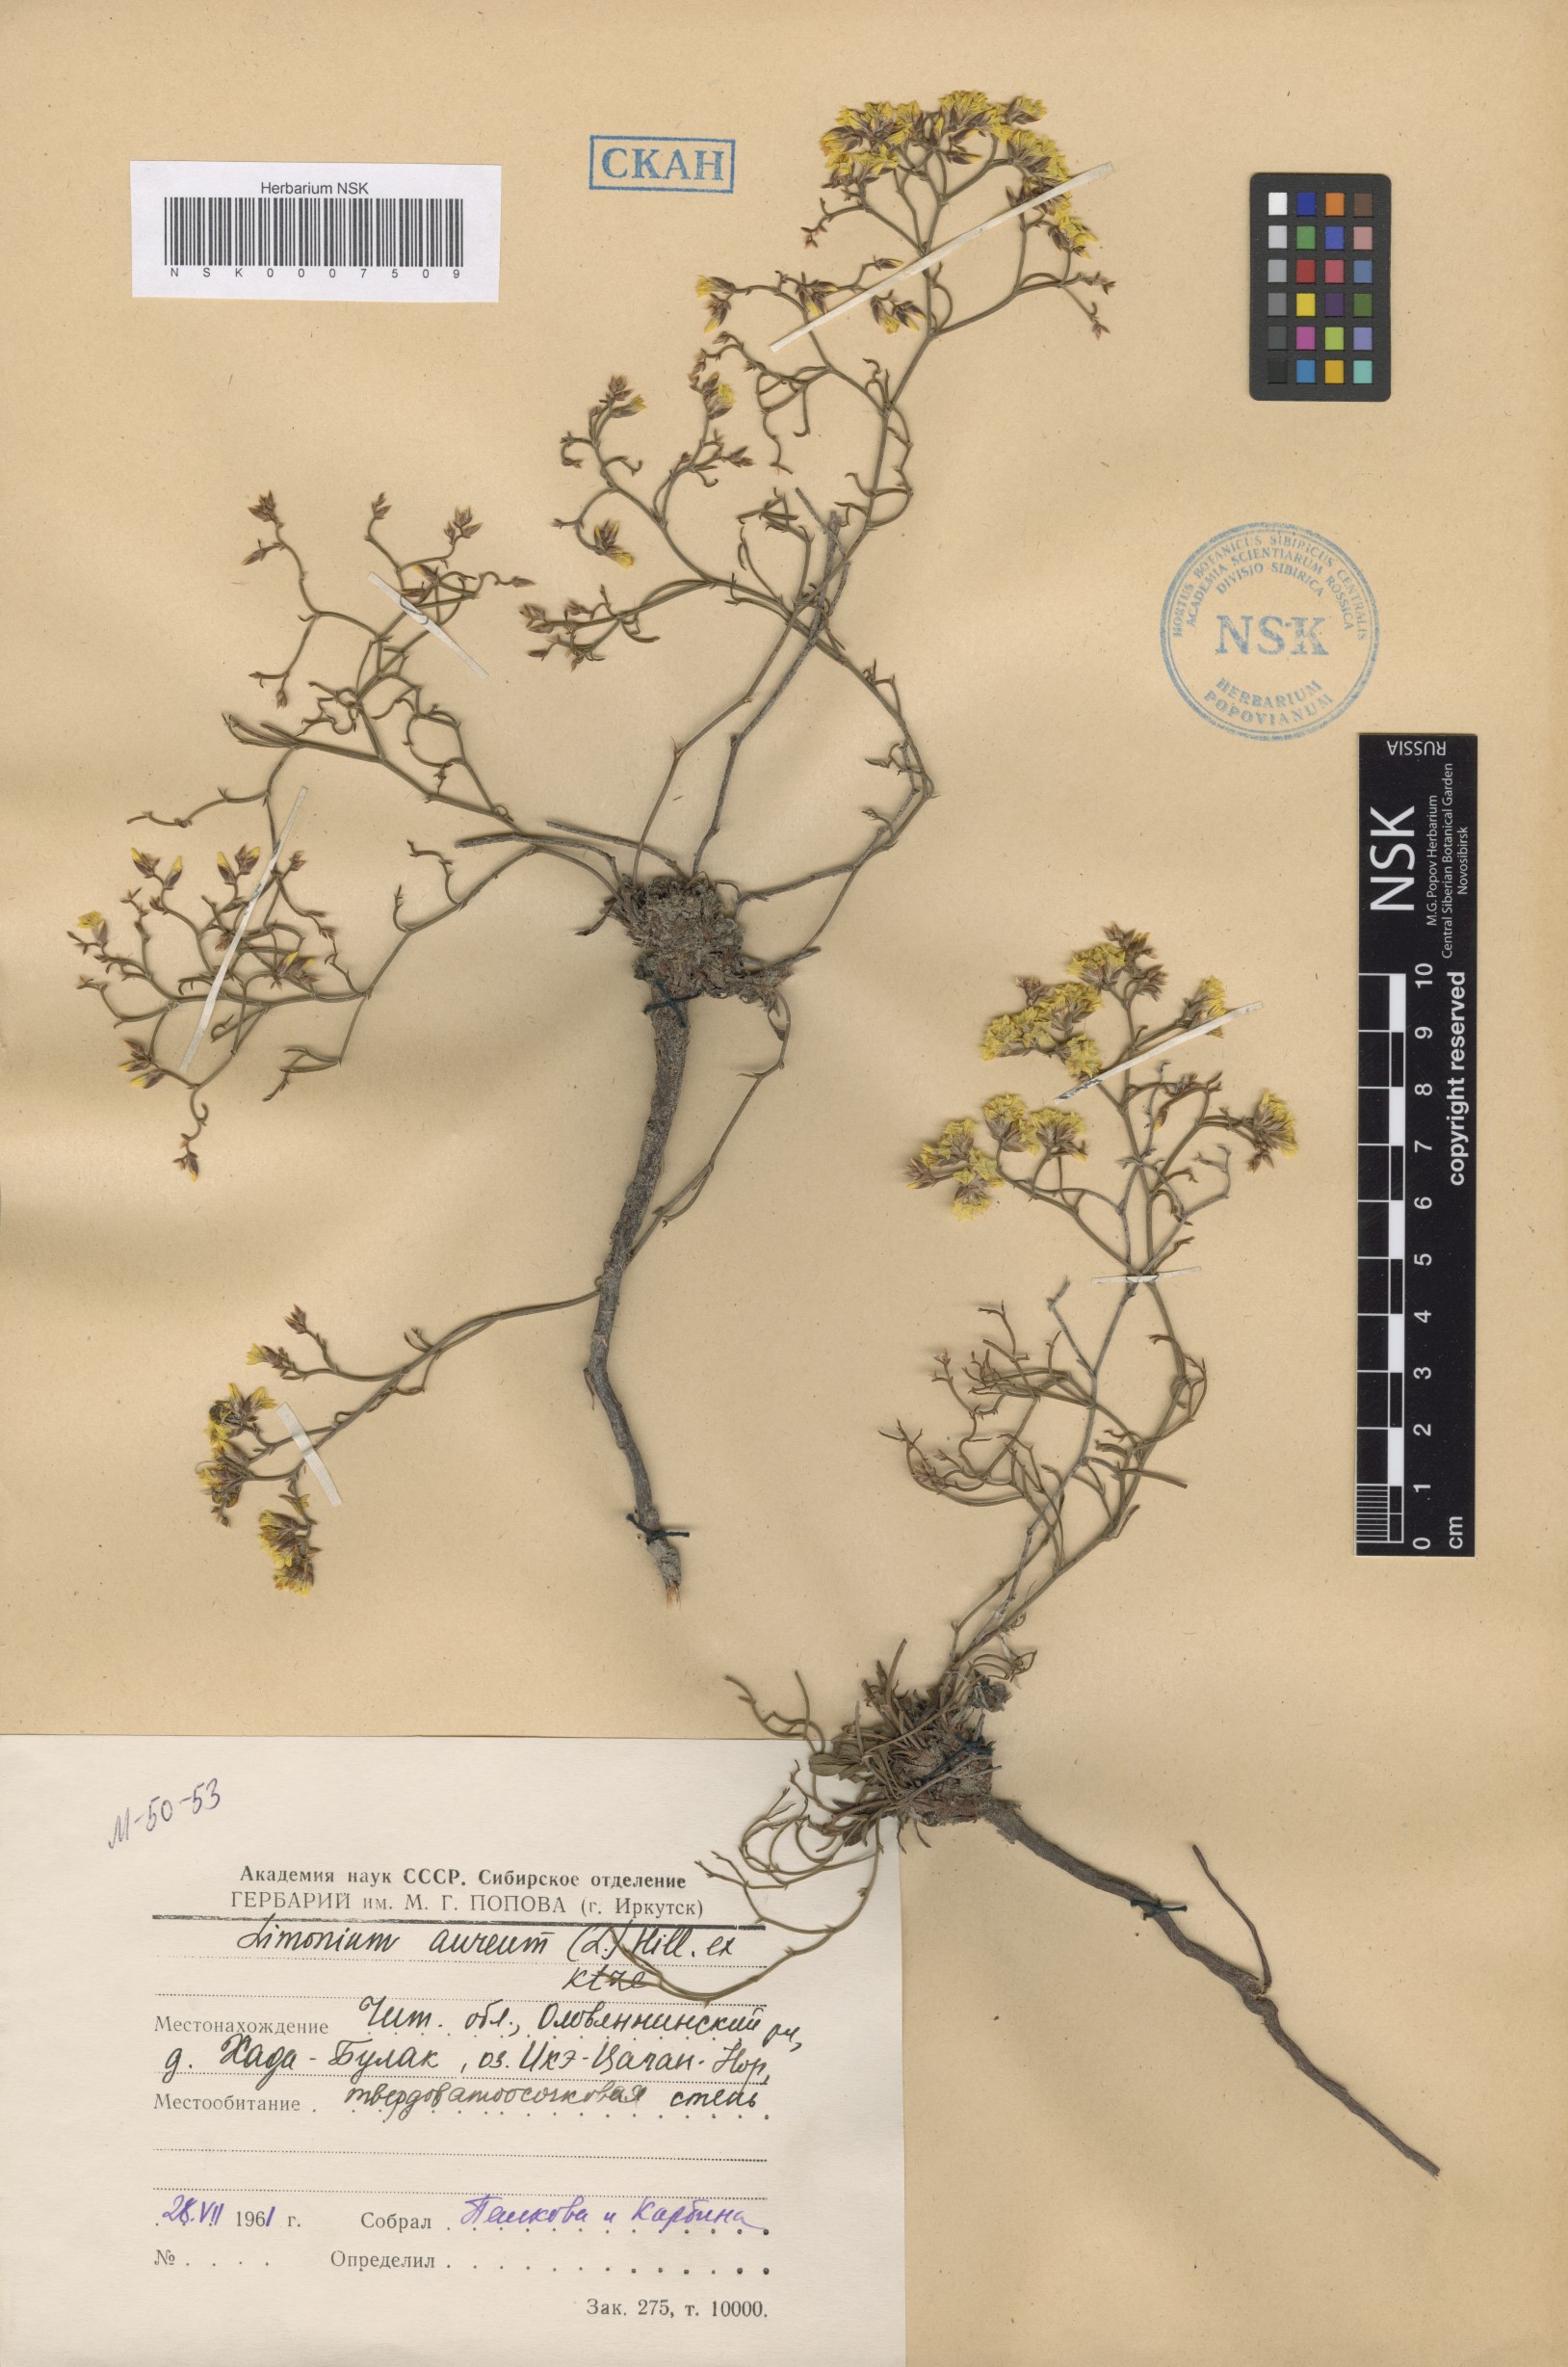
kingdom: Plantae
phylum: Tracheophyta
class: Magnoliopsida
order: Caryophyllales
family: Plumbaginaceae
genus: Limonium
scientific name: Limonium aureum
